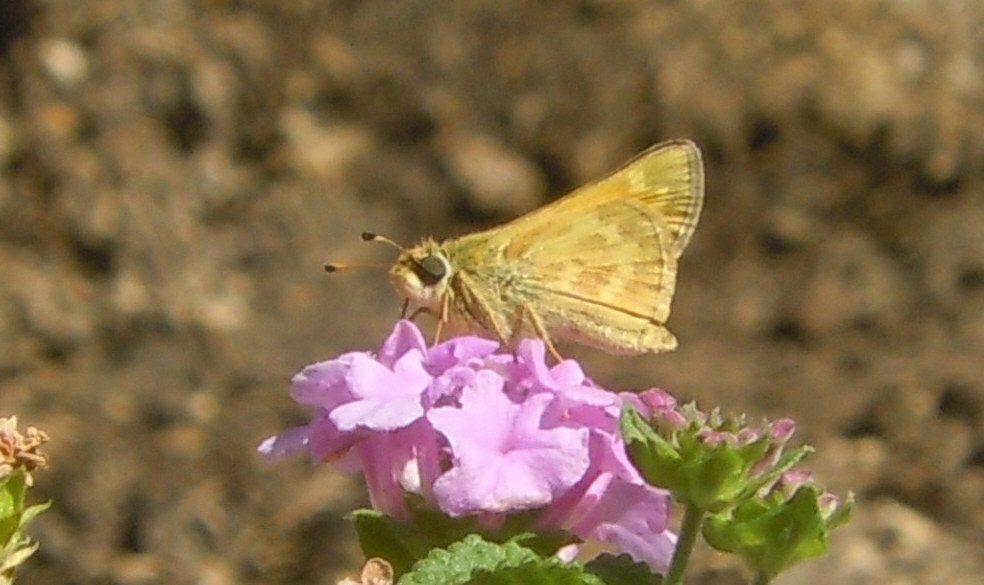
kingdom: Animalia
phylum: Arthropoda
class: Insecta
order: Lepidoptera
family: Hesperiidae
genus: Atalopedes
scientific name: Atalopedes campestris
